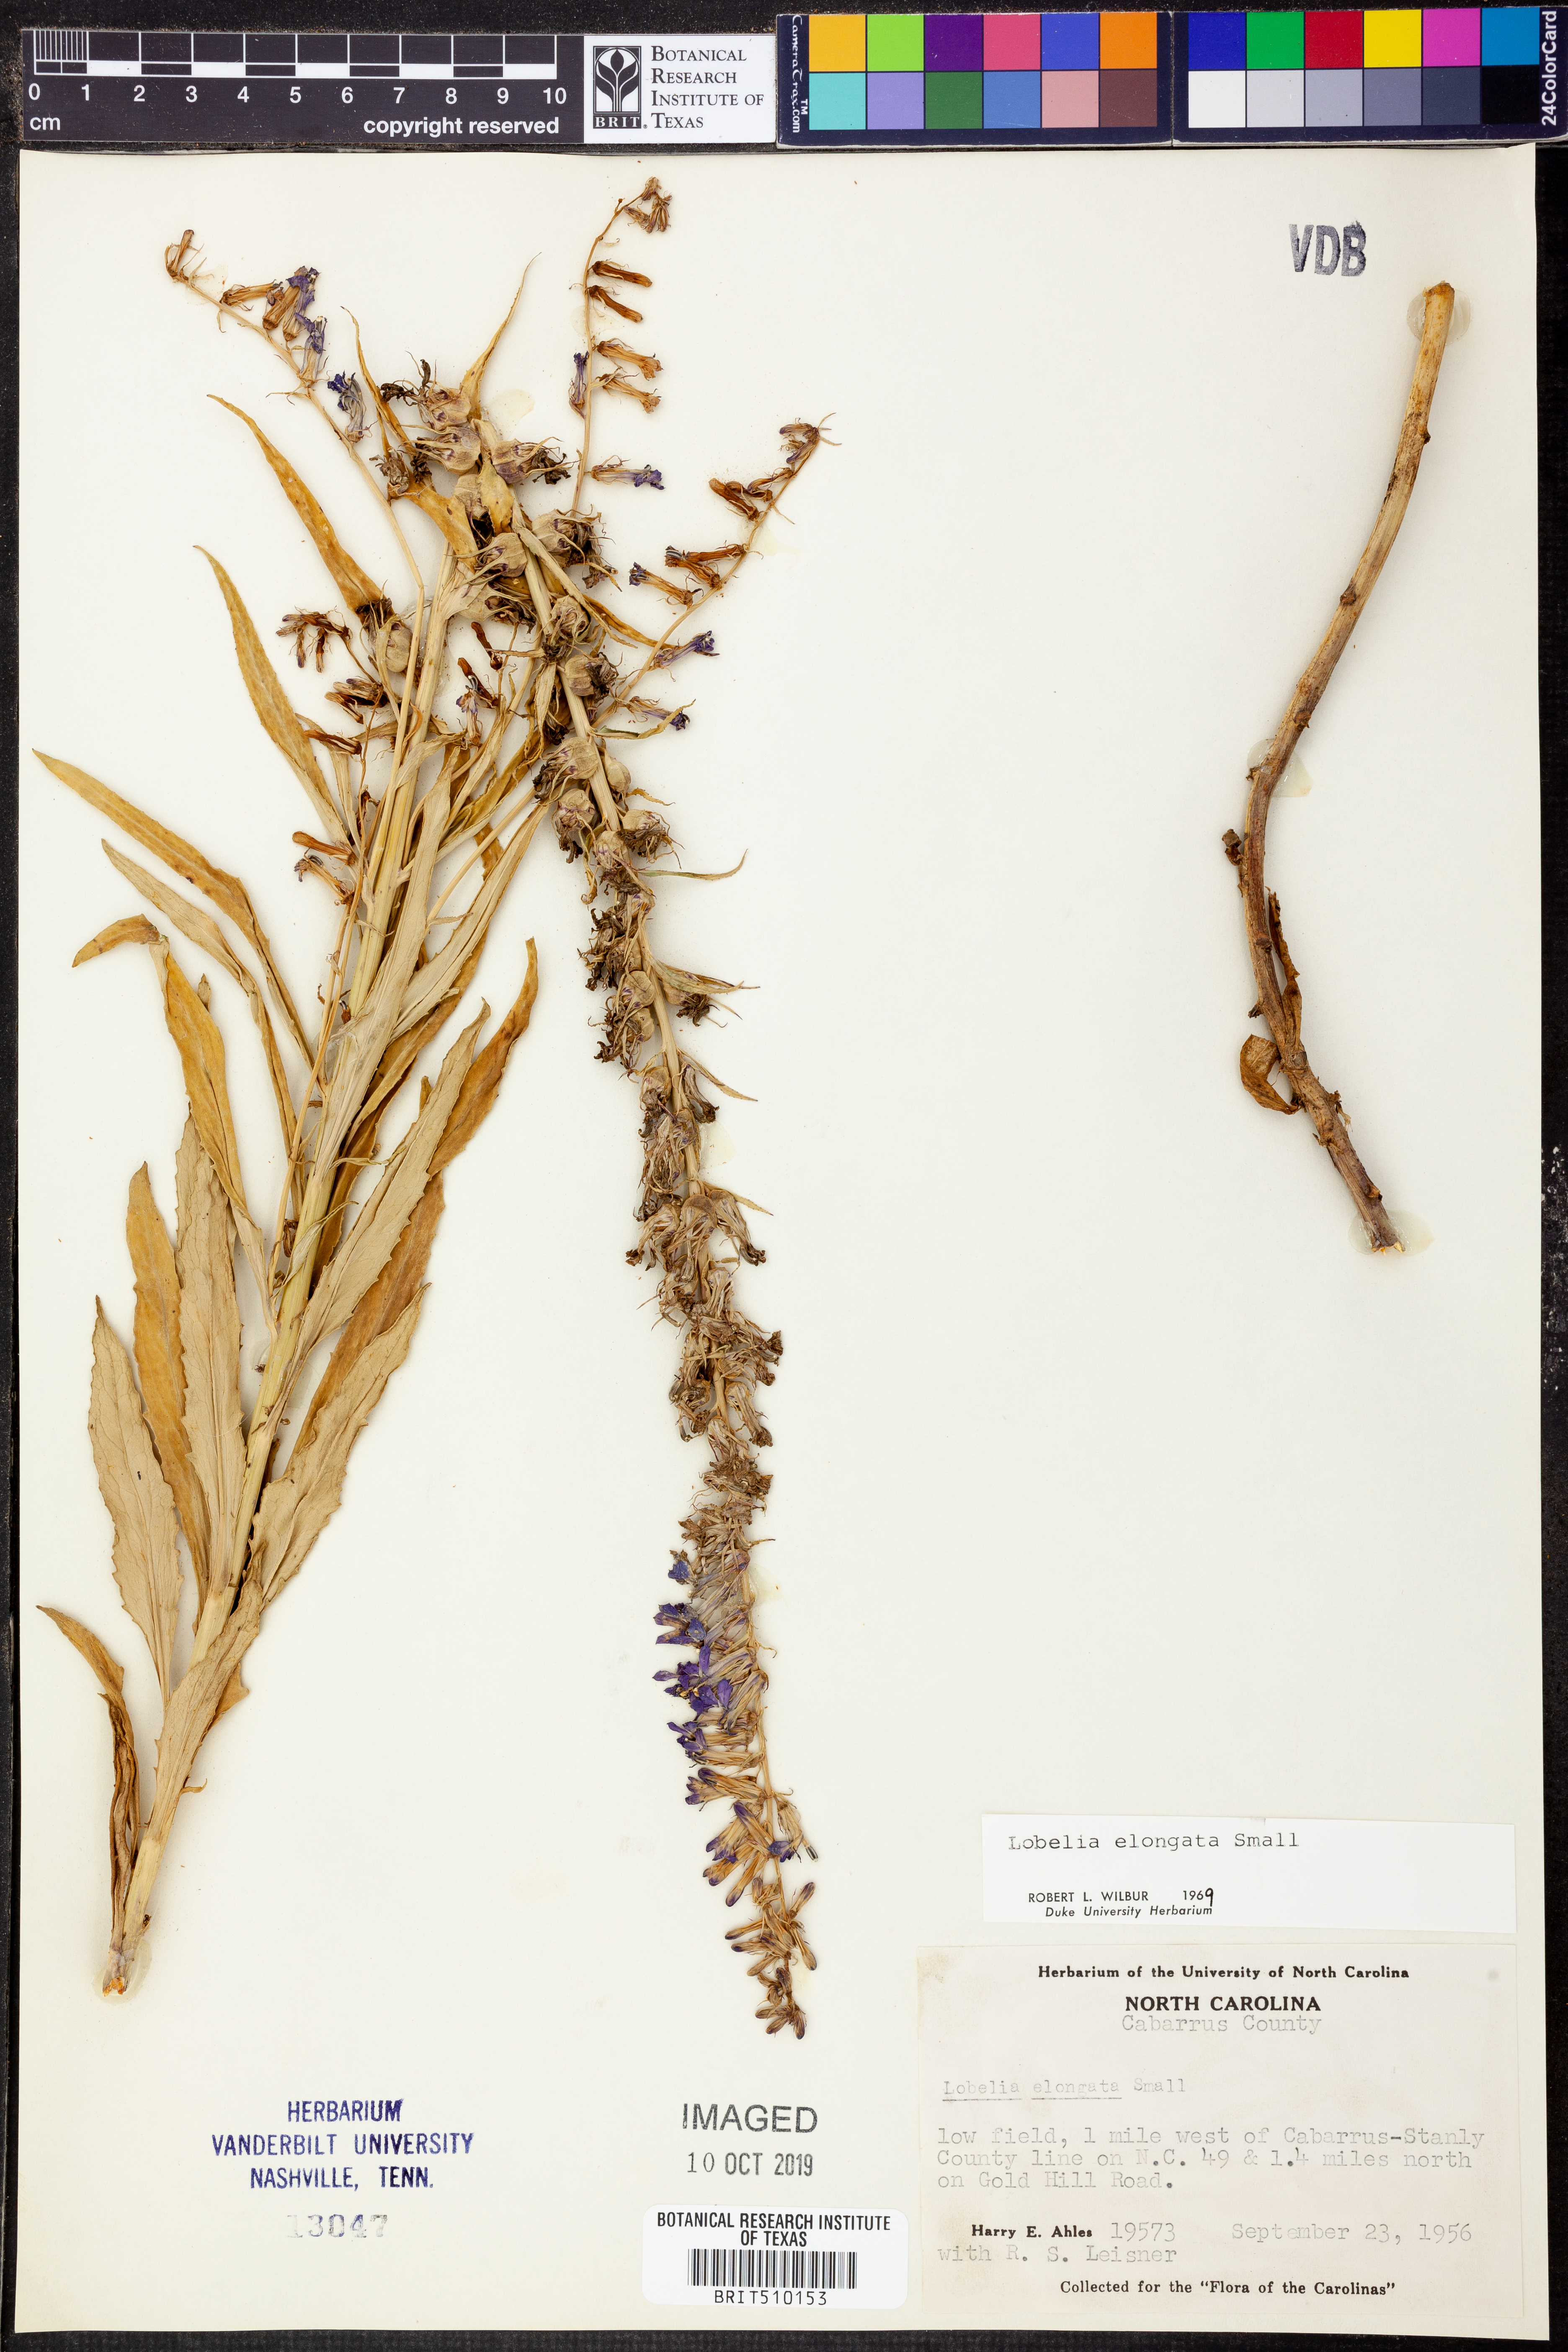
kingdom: Plantae
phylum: Tracheophyta
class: Magnoliopsida
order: Asterales
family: Campanulaceae
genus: Lobelia
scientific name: Lobelia elongata
